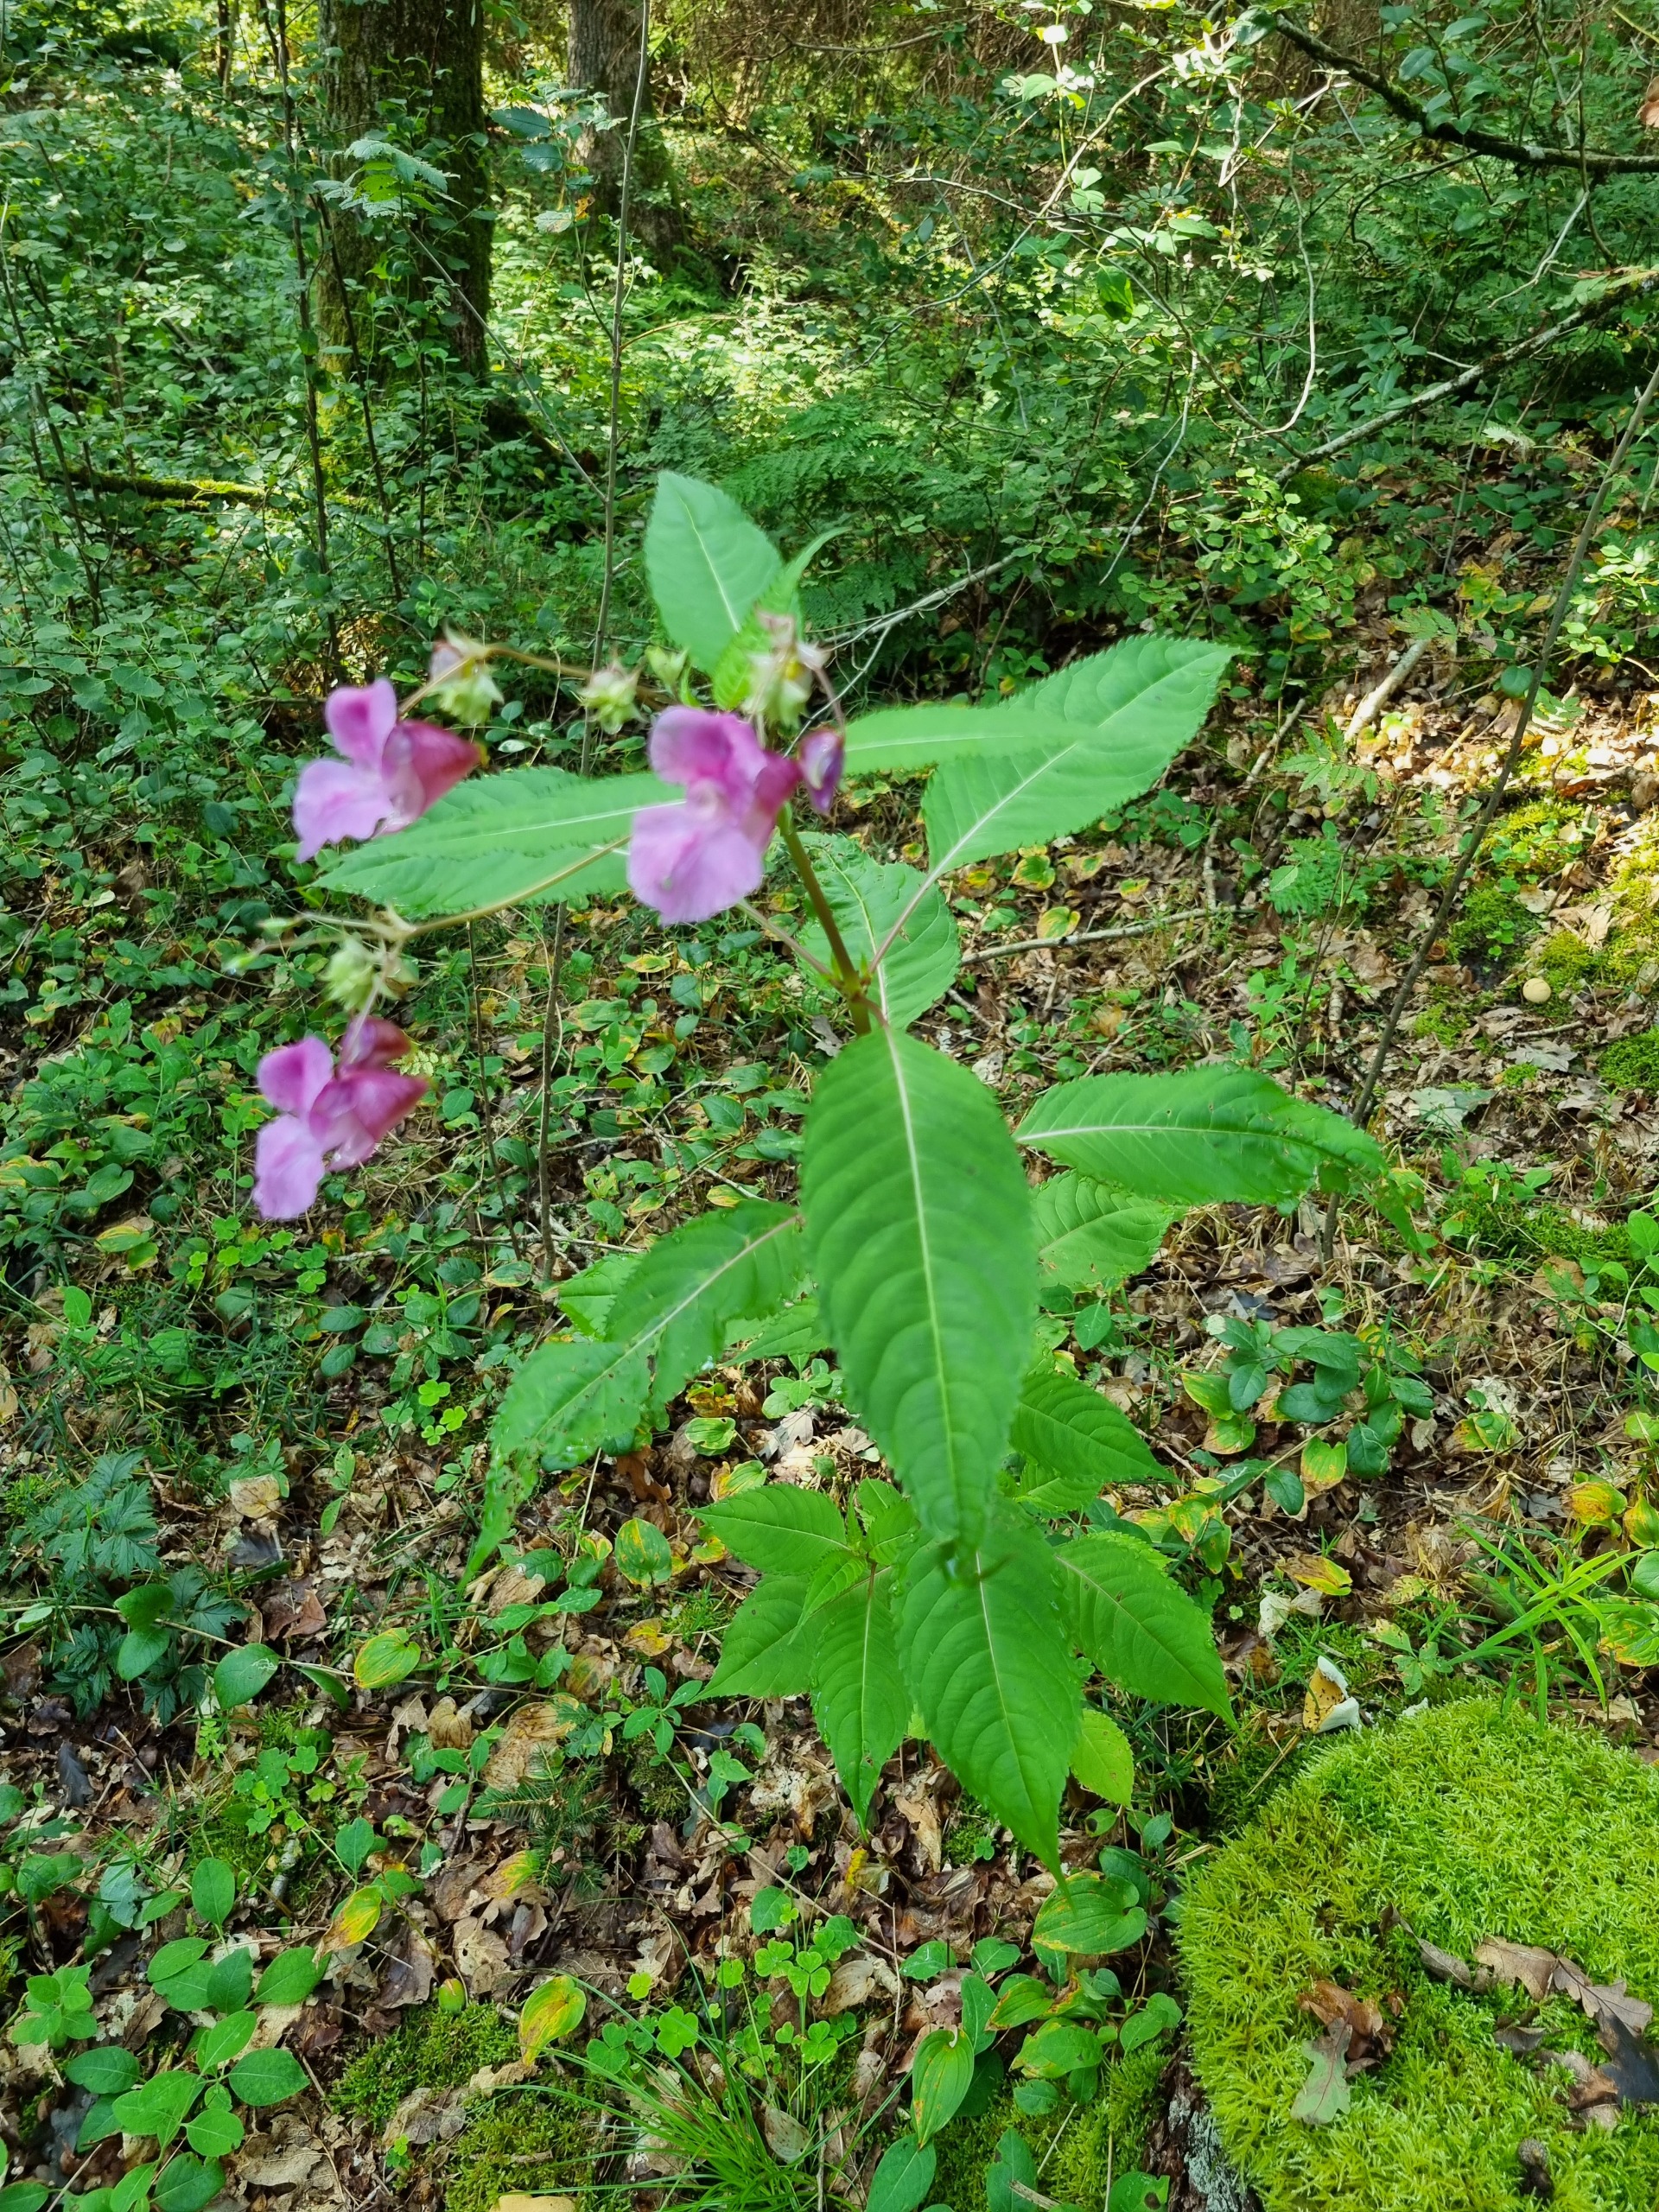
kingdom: Plantae
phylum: Tracheophyta
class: Magnoliopsida
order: Ericales
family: Balsaminaceae
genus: Impatiens
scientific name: Impatiens glandulifera
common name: Kæmpe-balsamin
